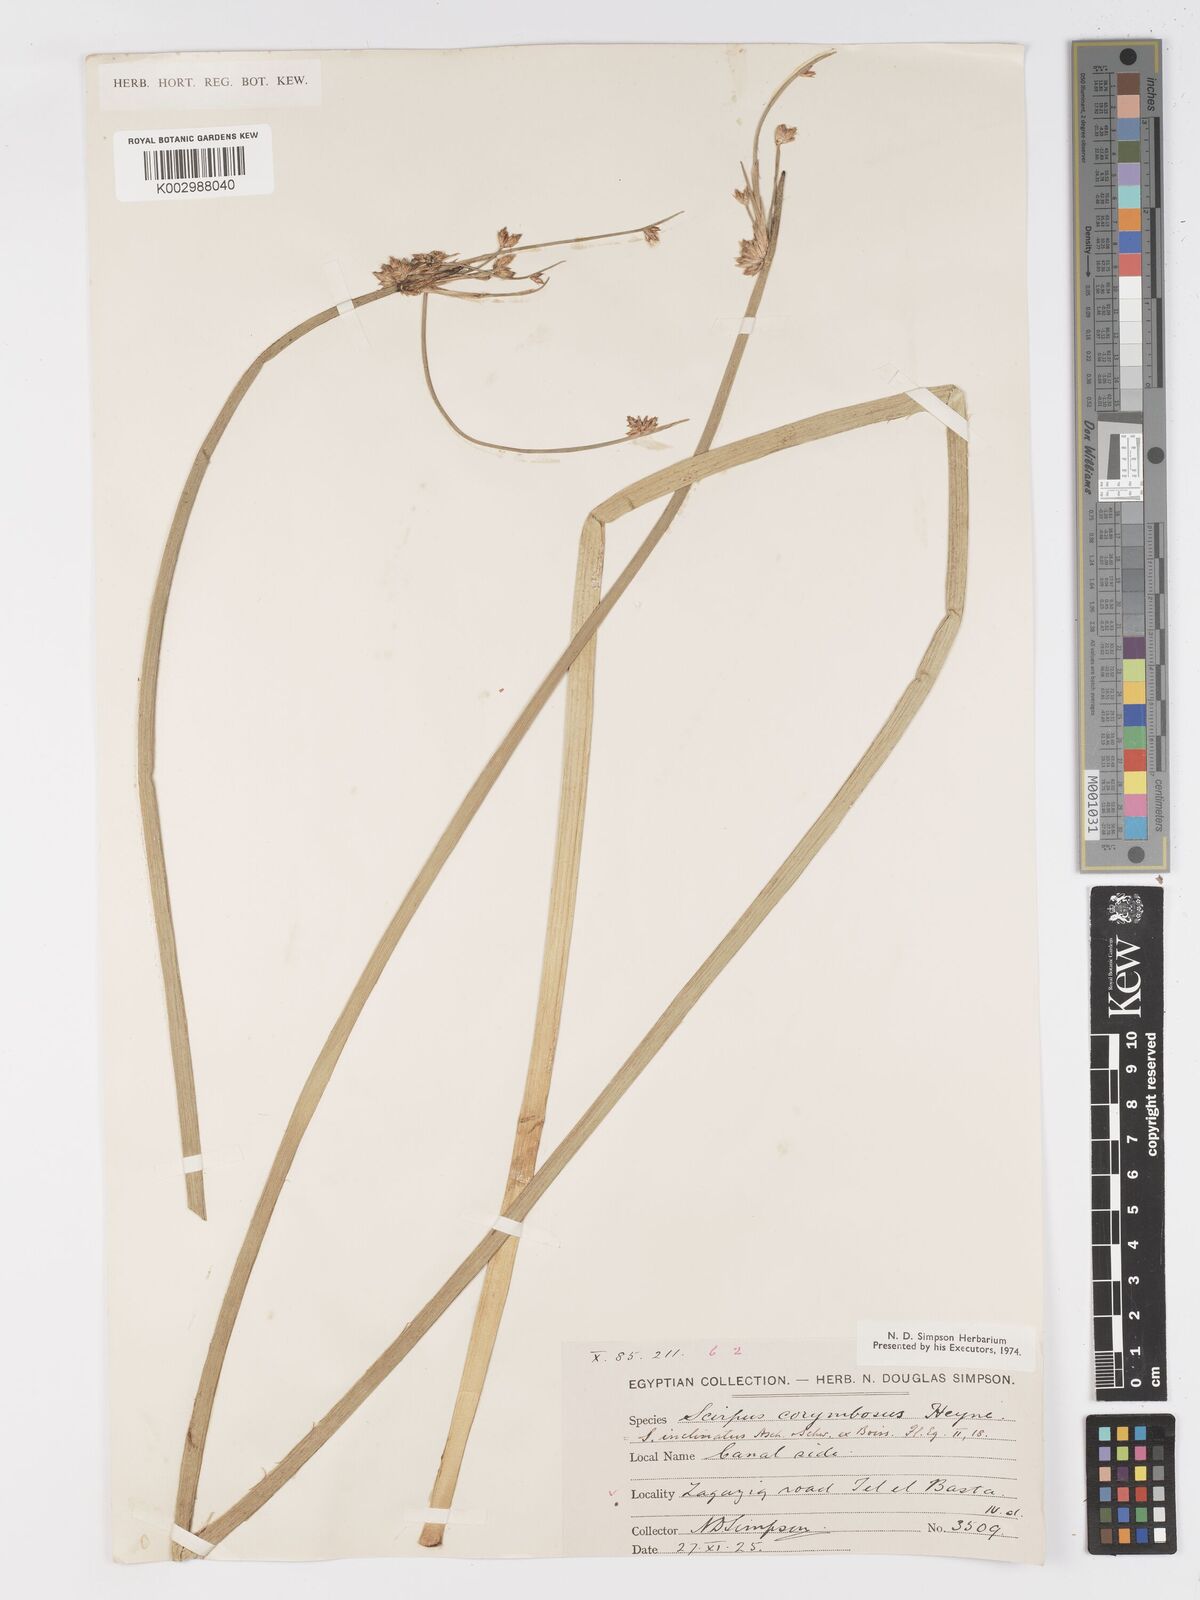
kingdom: Plantae
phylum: Tracheophyta
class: Liliopsida
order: Poales
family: Cyperaceae
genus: Schoenoplectiella
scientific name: Schoenoplectiella corymbosa
